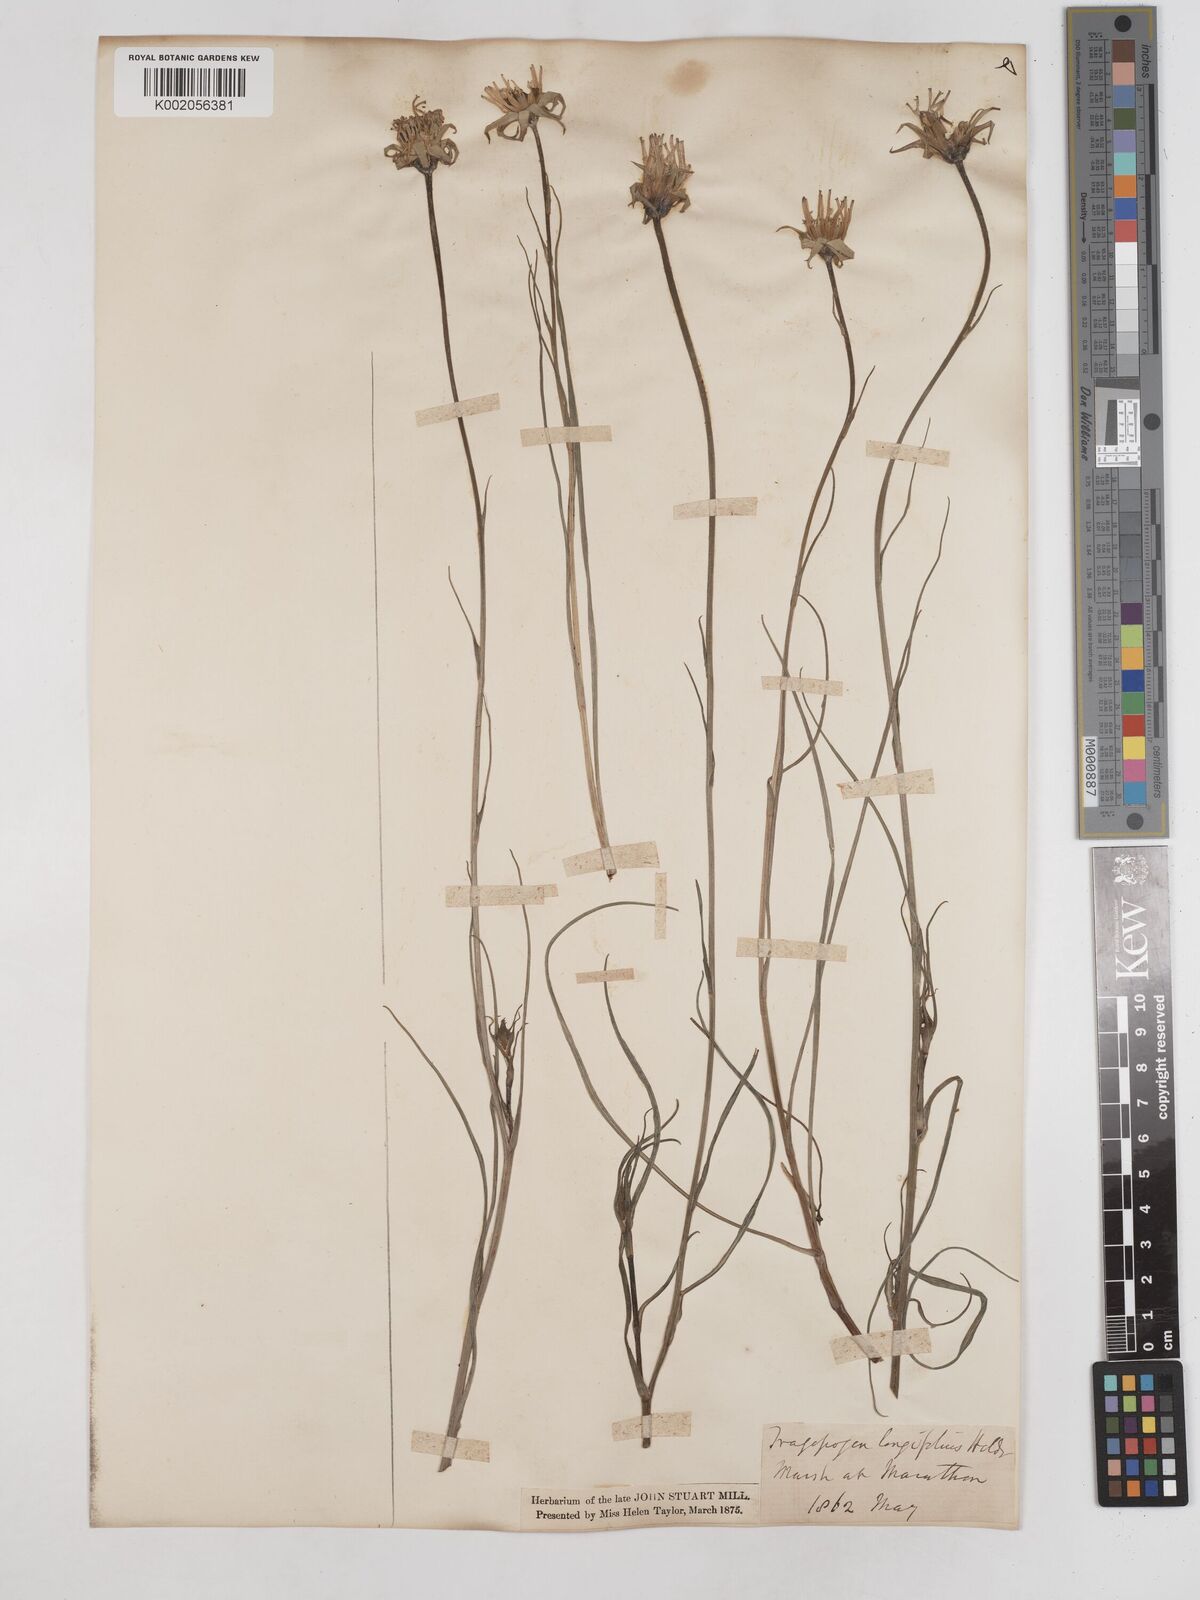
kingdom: Plantae
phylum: Tracheophyta
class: Magnoliopsida
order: Asterales
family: Asteraceae
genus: Tragopogon
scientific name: Tragopogon longifolius
